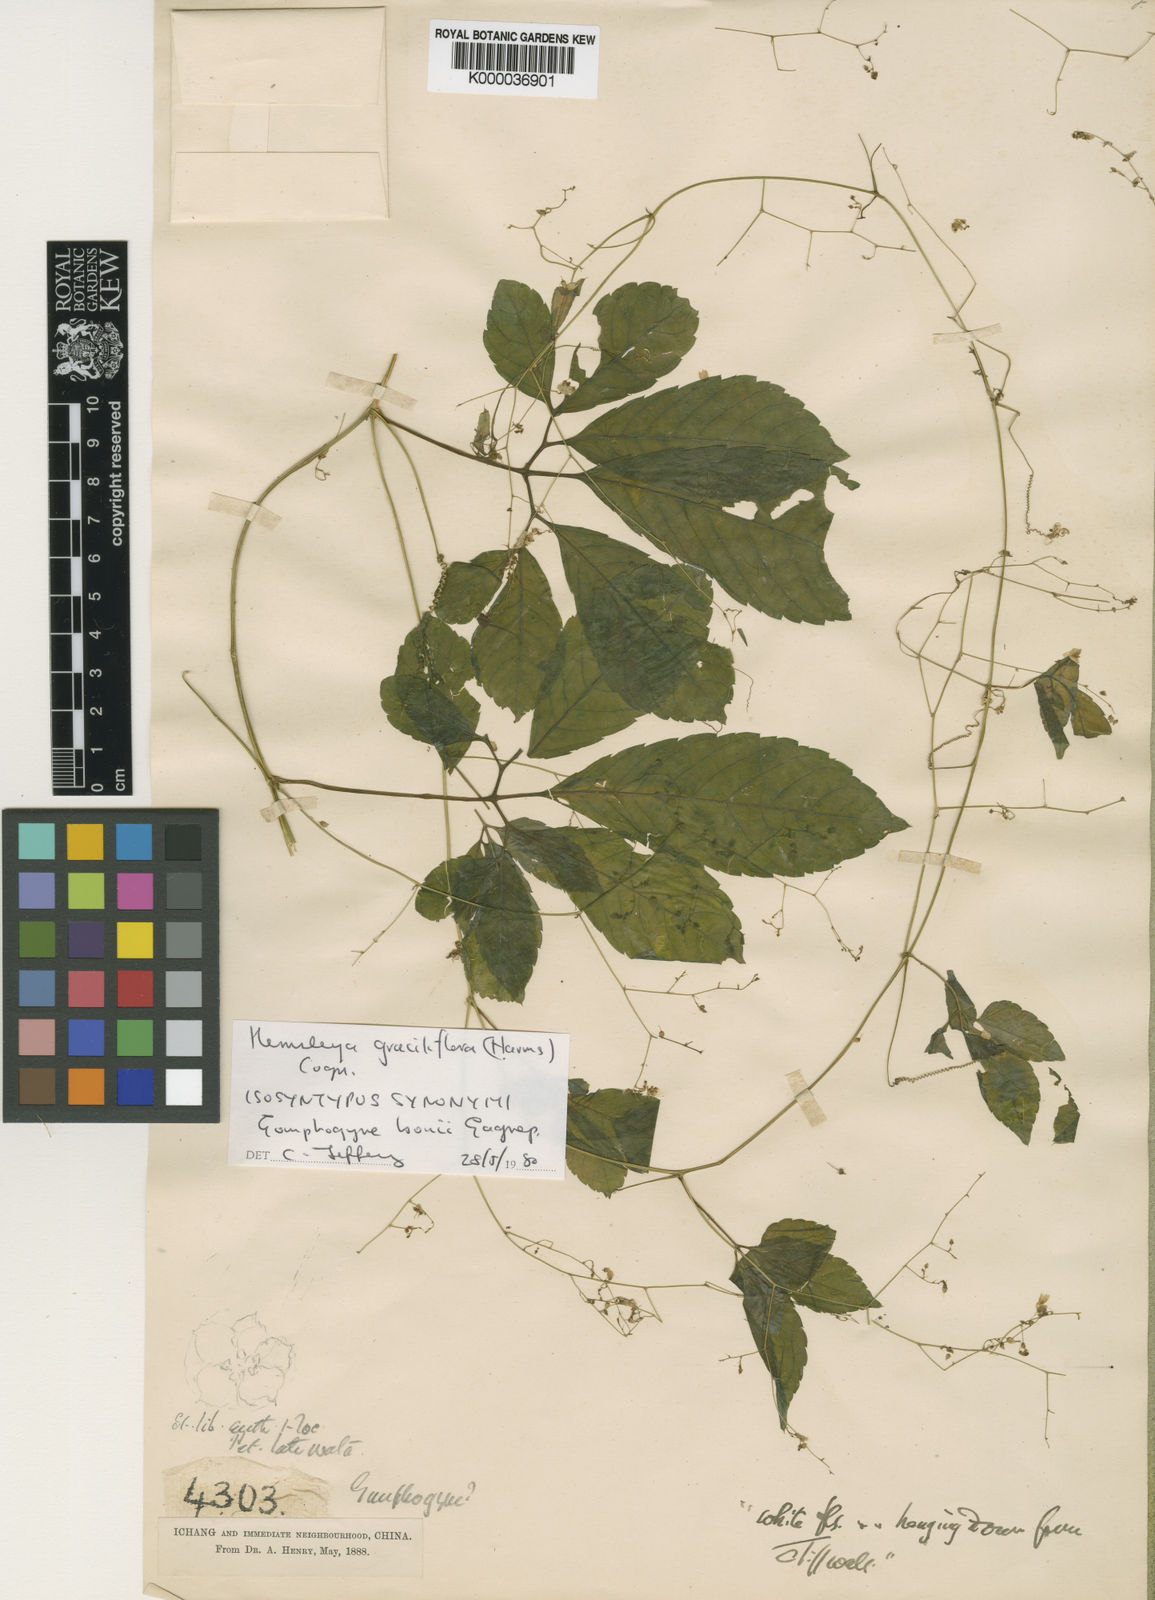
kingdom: Plantae
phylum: Tracheophyta
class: Magnoliopsida
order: Cucurbitales
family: Cucurbitaceae
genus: Hemsleya
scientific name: Hemsleya graciliflora
